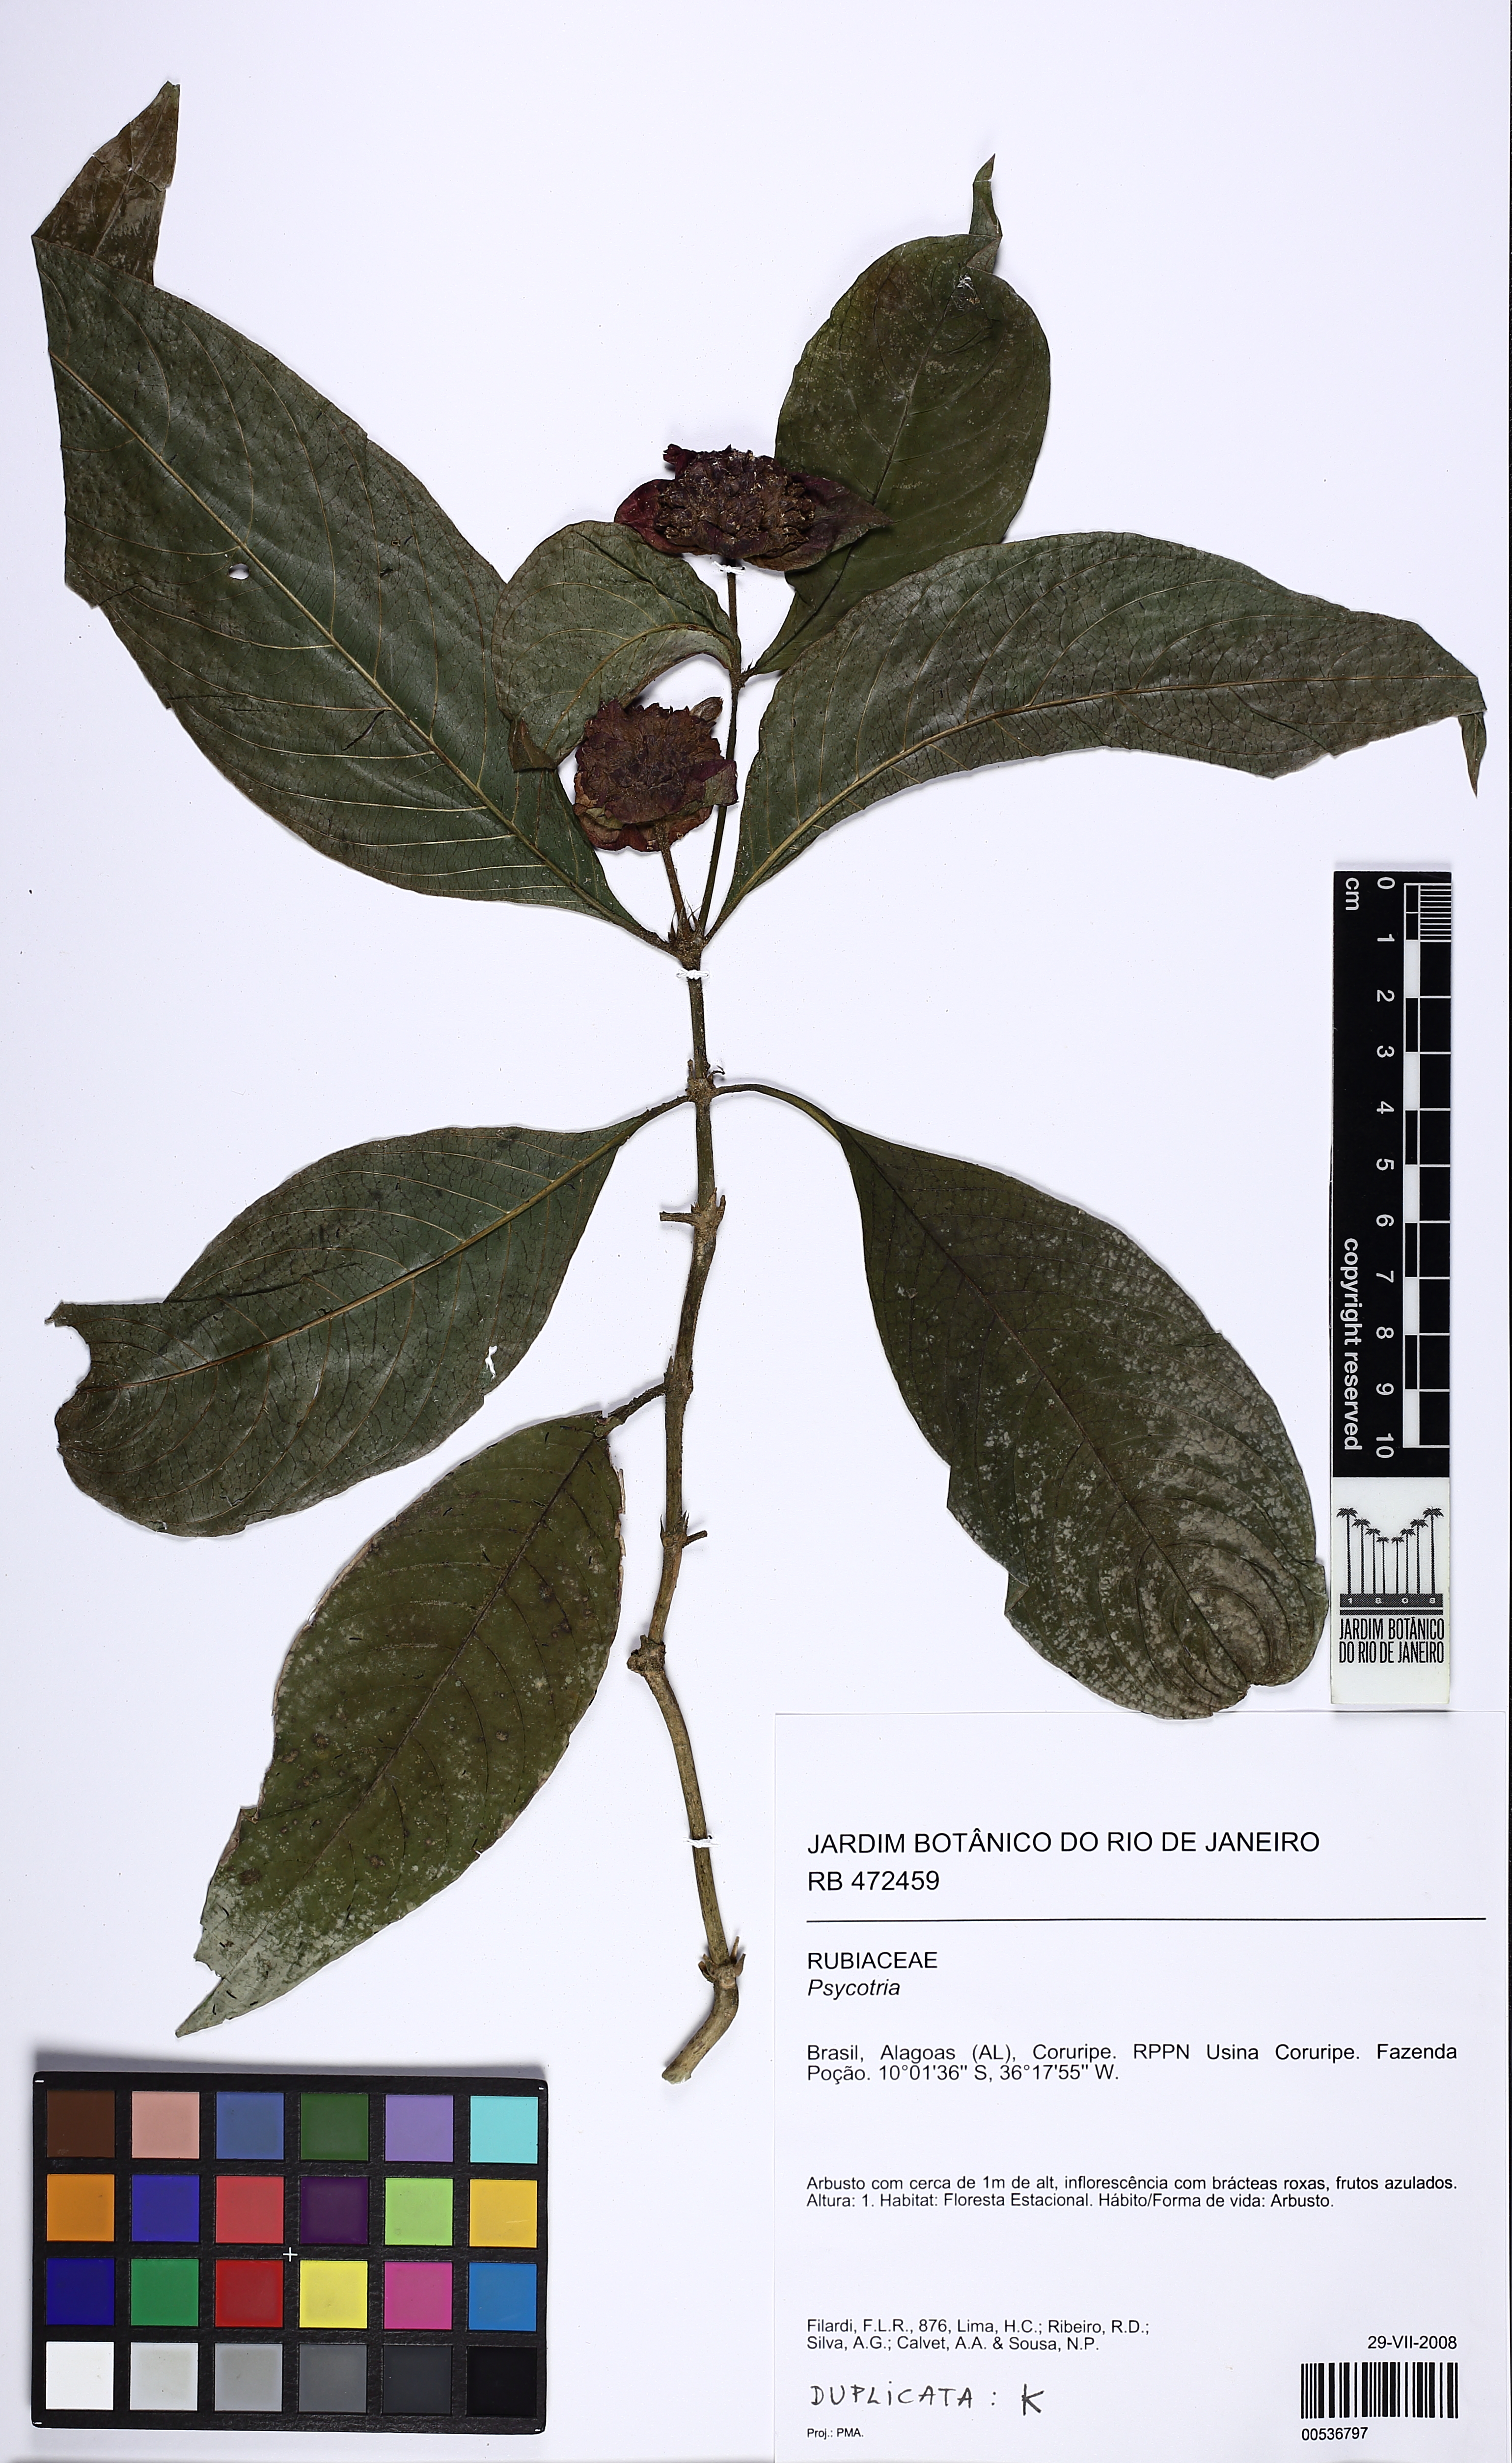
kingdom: Plantae
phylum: Tracheophyta
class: Magnoliopsida
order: Gentianales
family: Rubiaceae
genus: Palicourea
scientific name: Palicourea bracteocardia
